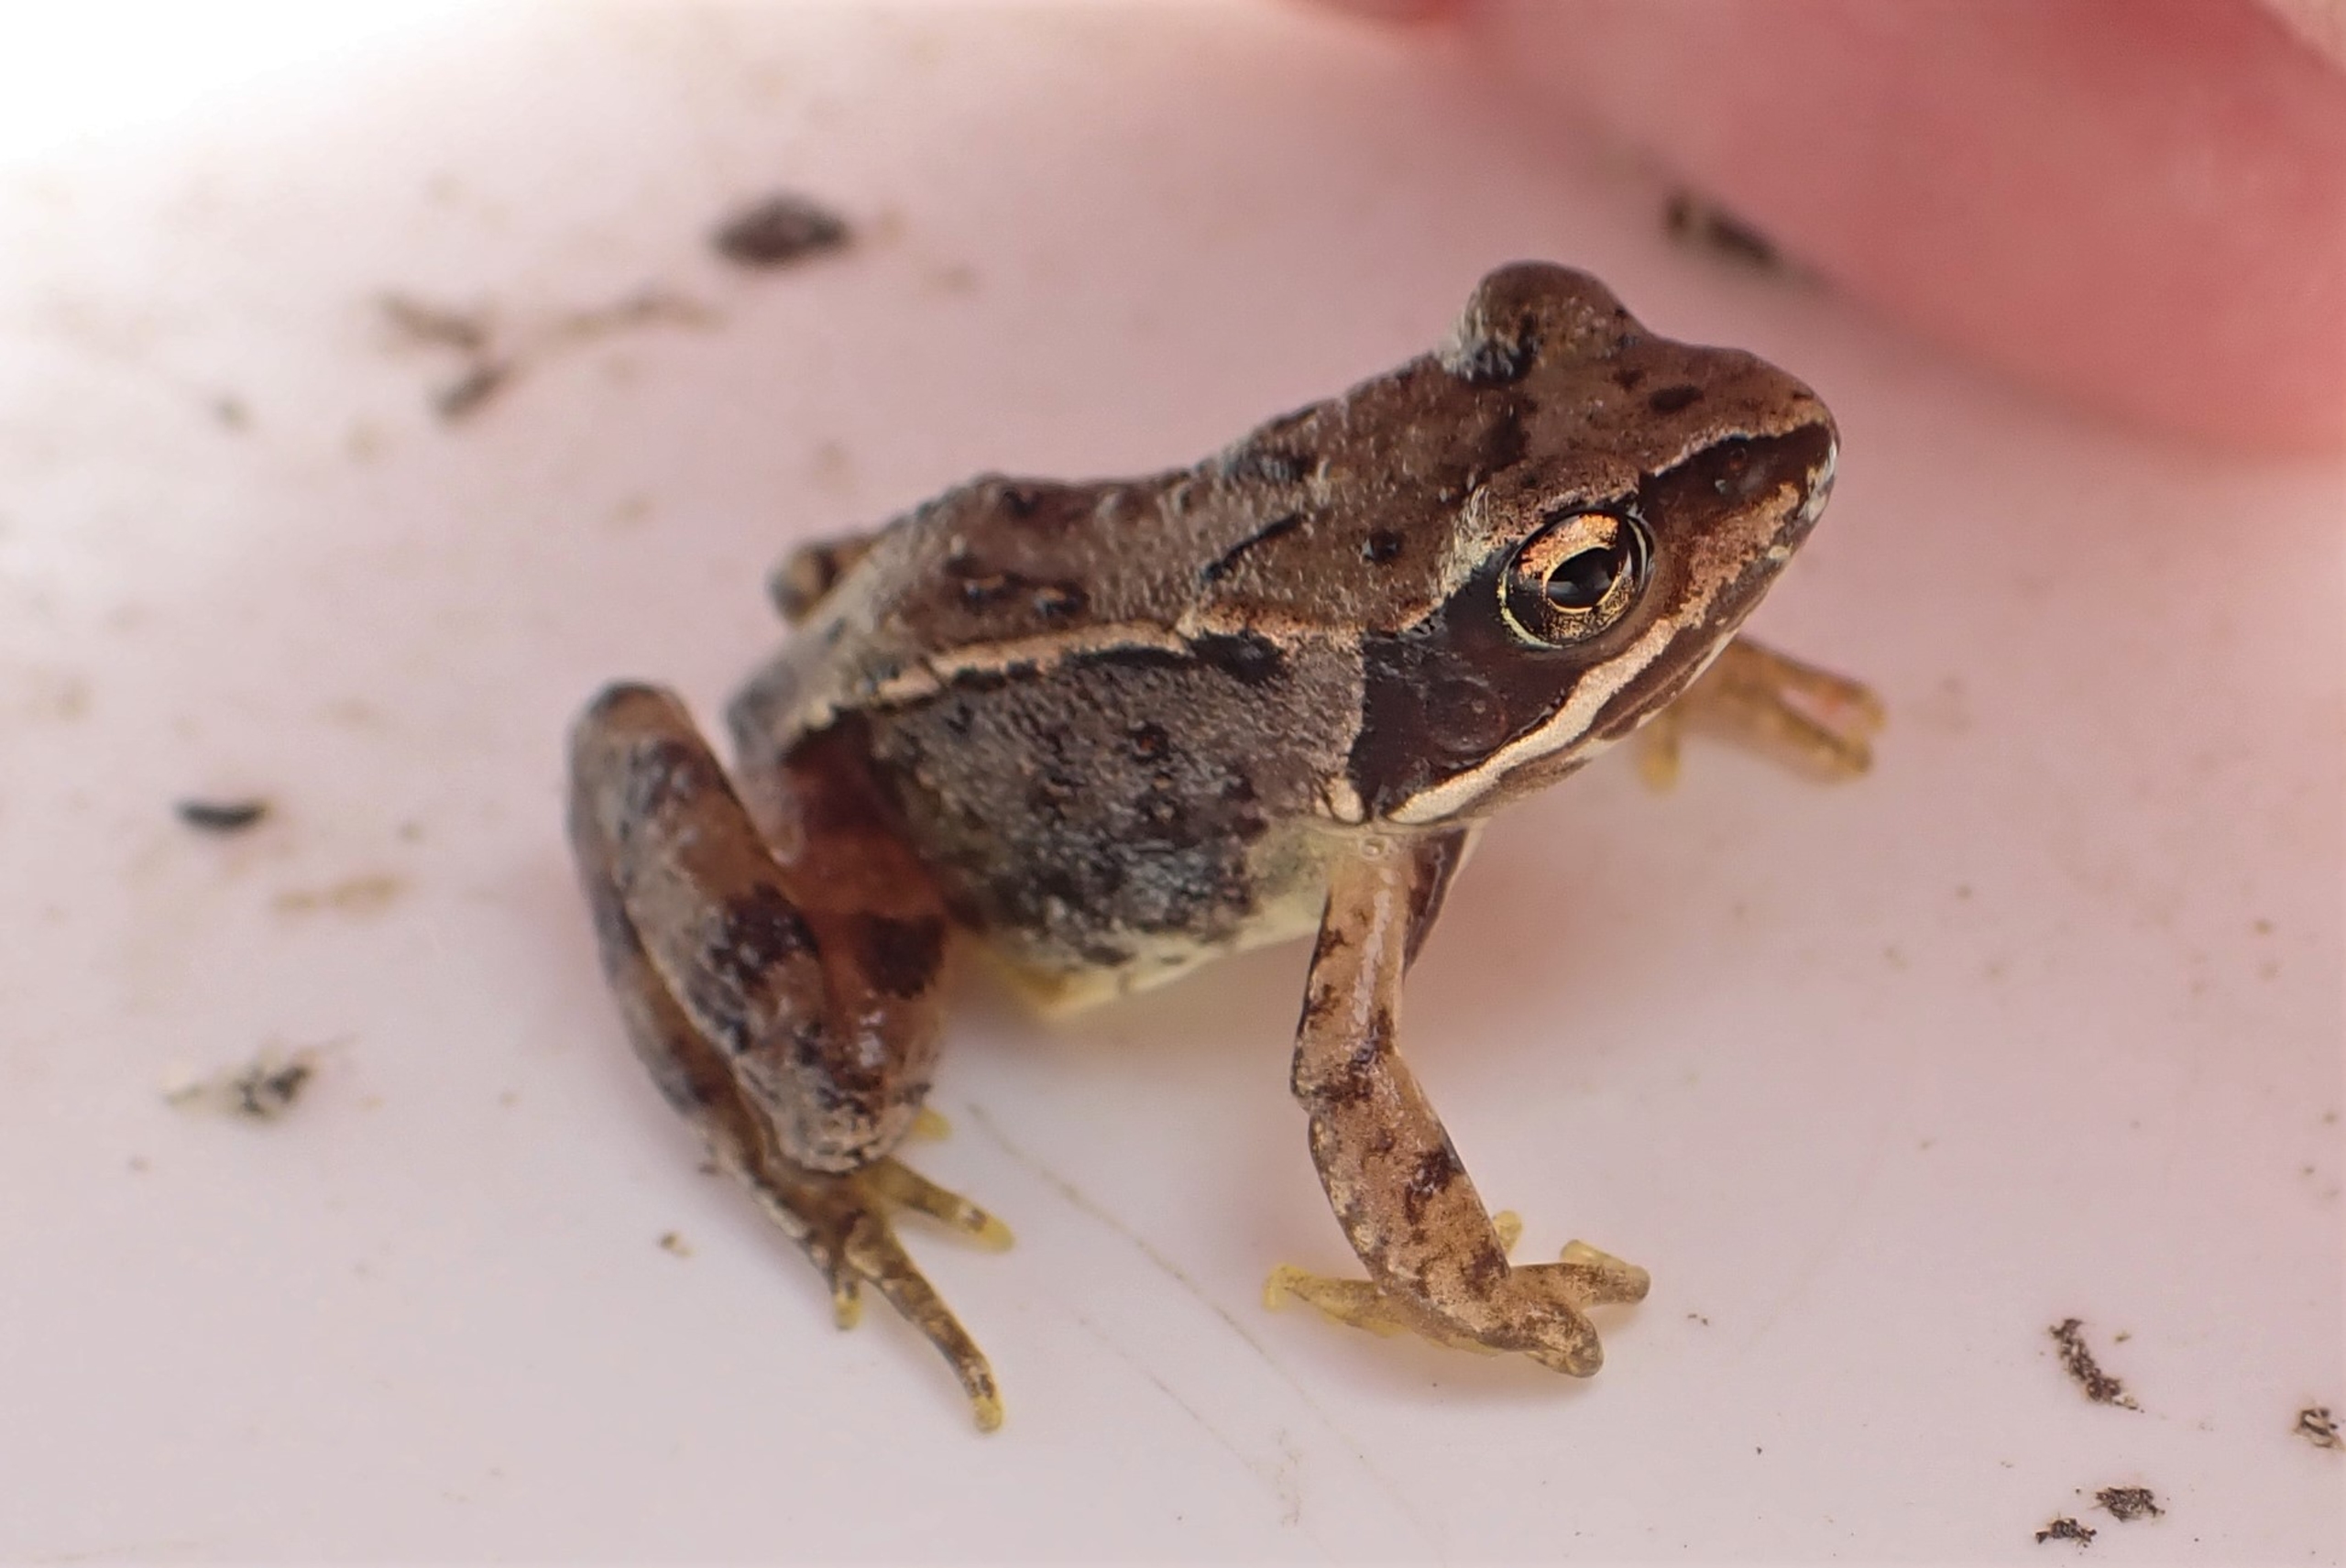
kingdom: Animalia
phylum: Chordata
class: Amphibia
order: Anura
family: Ranidae
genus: Rana
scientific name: Rana temporaria
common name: Butsnudet frø
